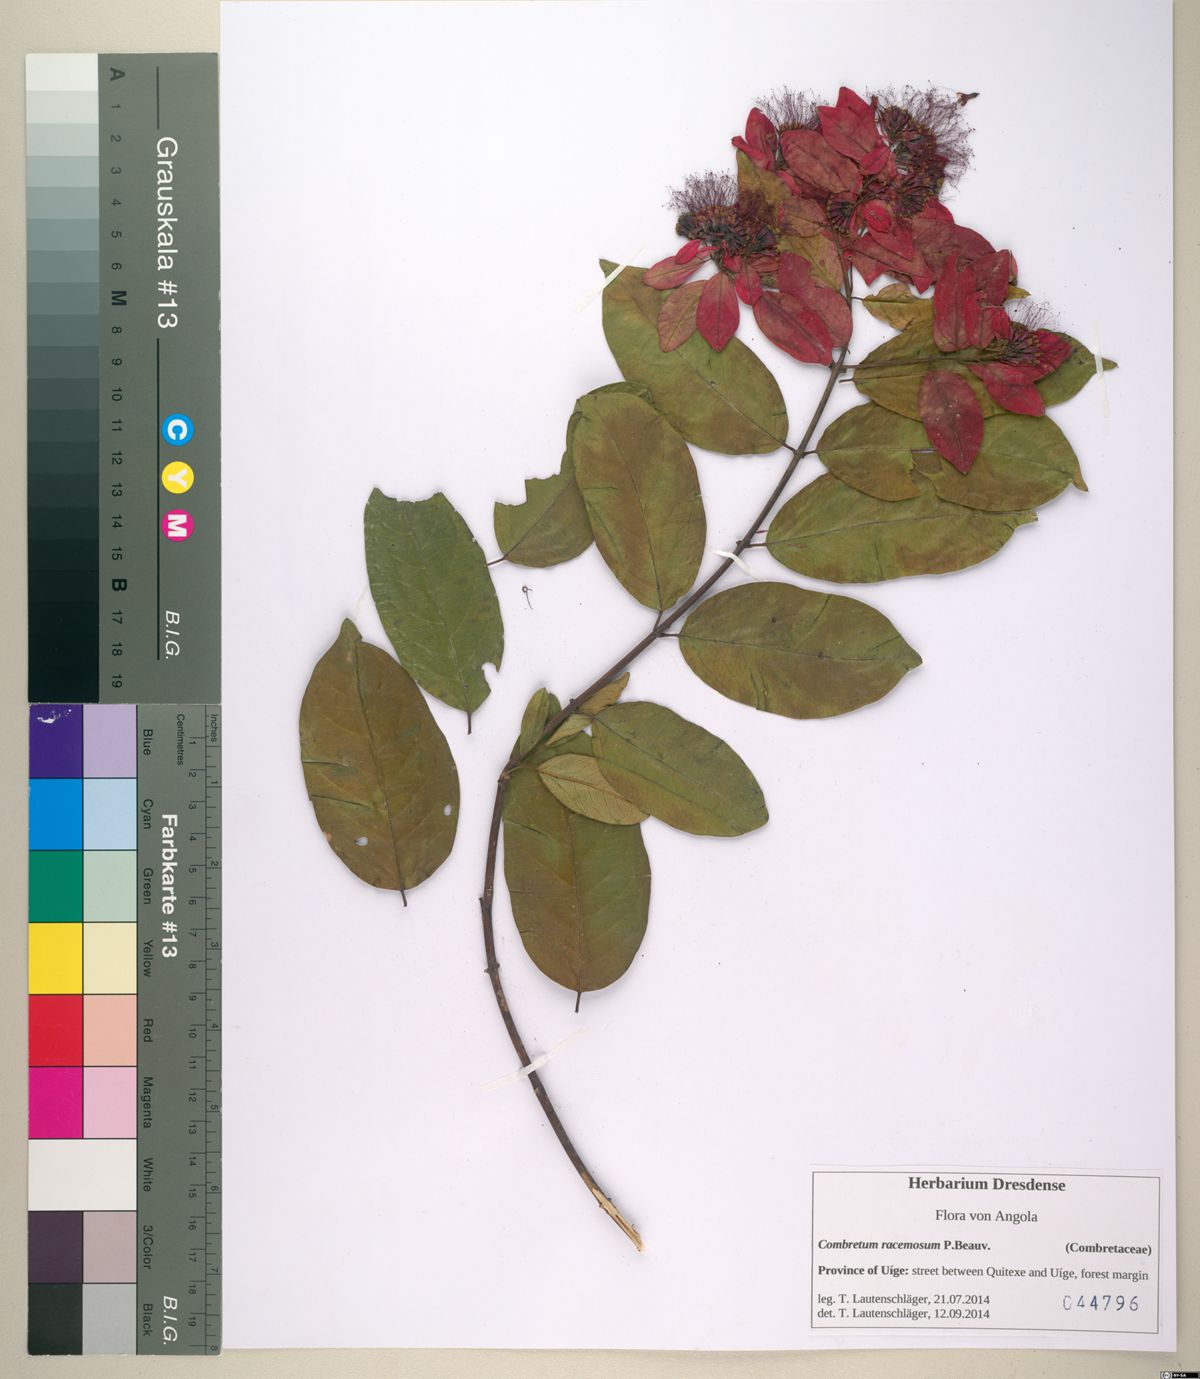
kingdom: Plantae
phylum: Tracheophyta
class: Magnoliopsida
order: Myrtales
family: Combretaceae
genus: Combretum
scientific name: Combretum racemosum
